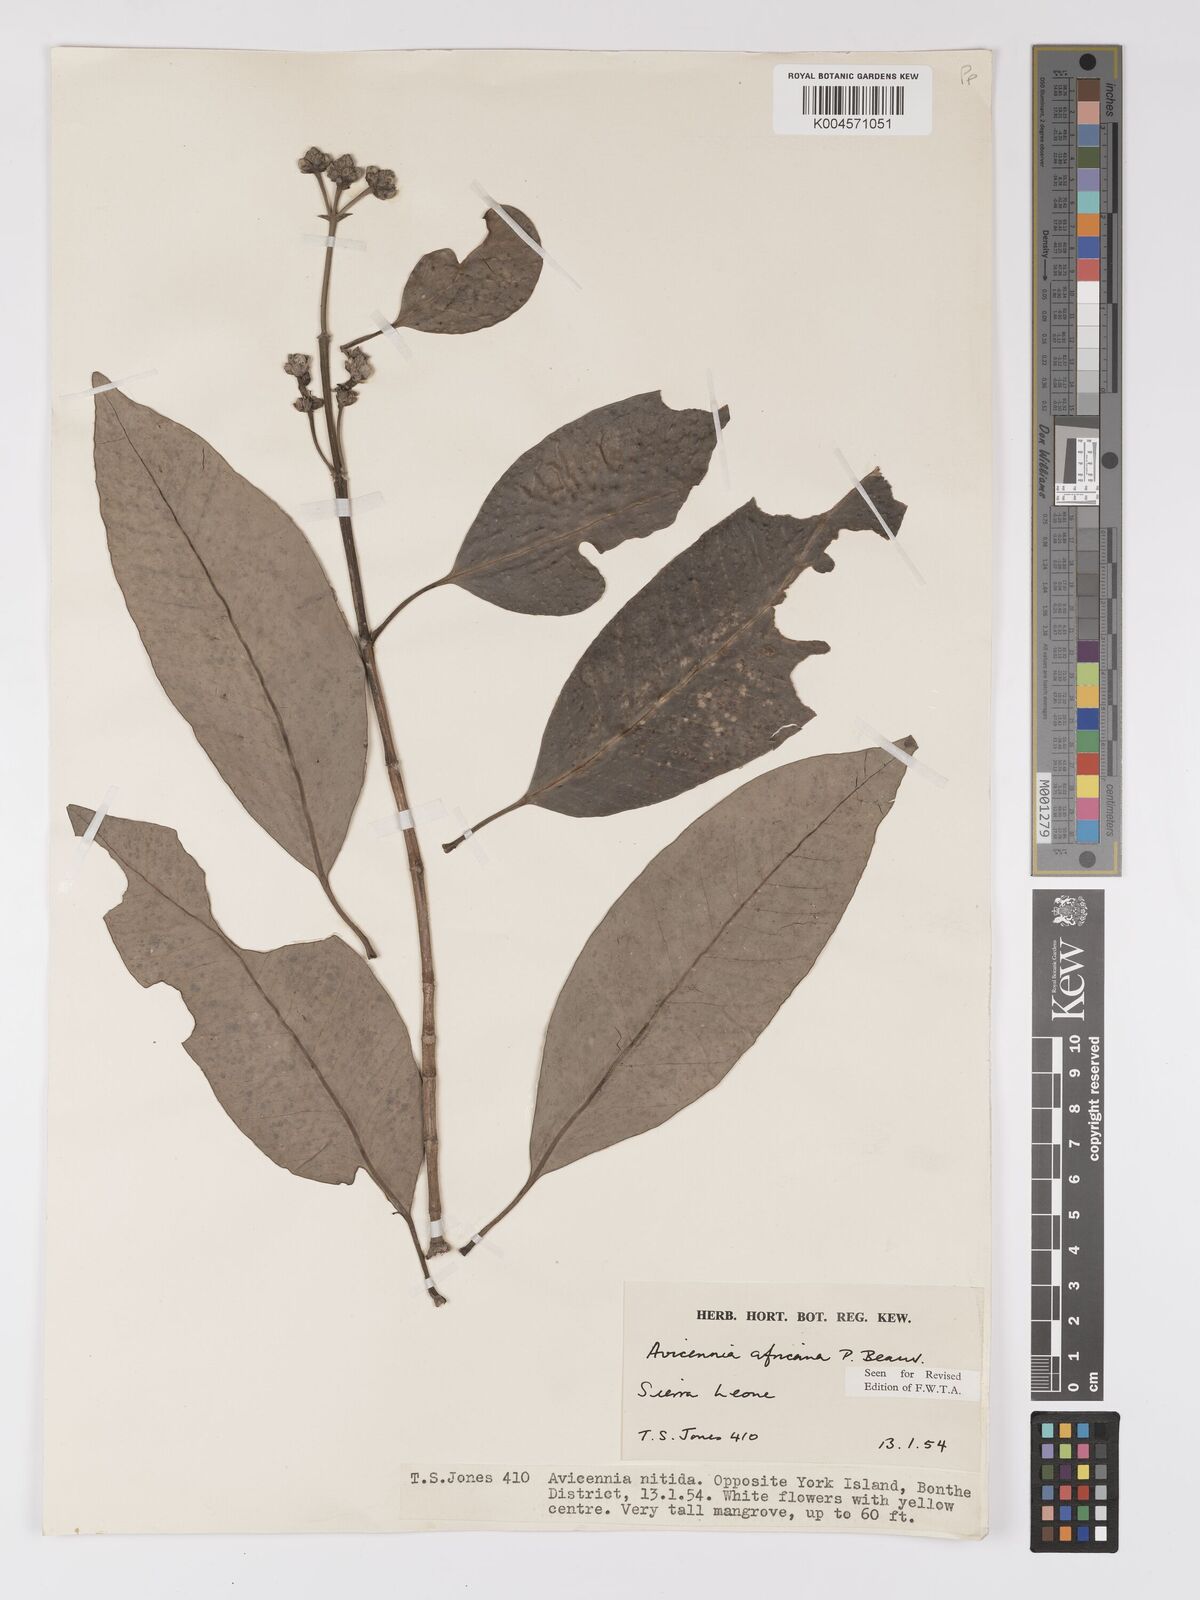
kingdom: Plantae
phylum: Tracheophyta
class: Magnoliopsida
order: Lamiales
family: Acanthaceae
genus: Avicennia
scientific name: Avicennia germinans
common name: Black mangrove
